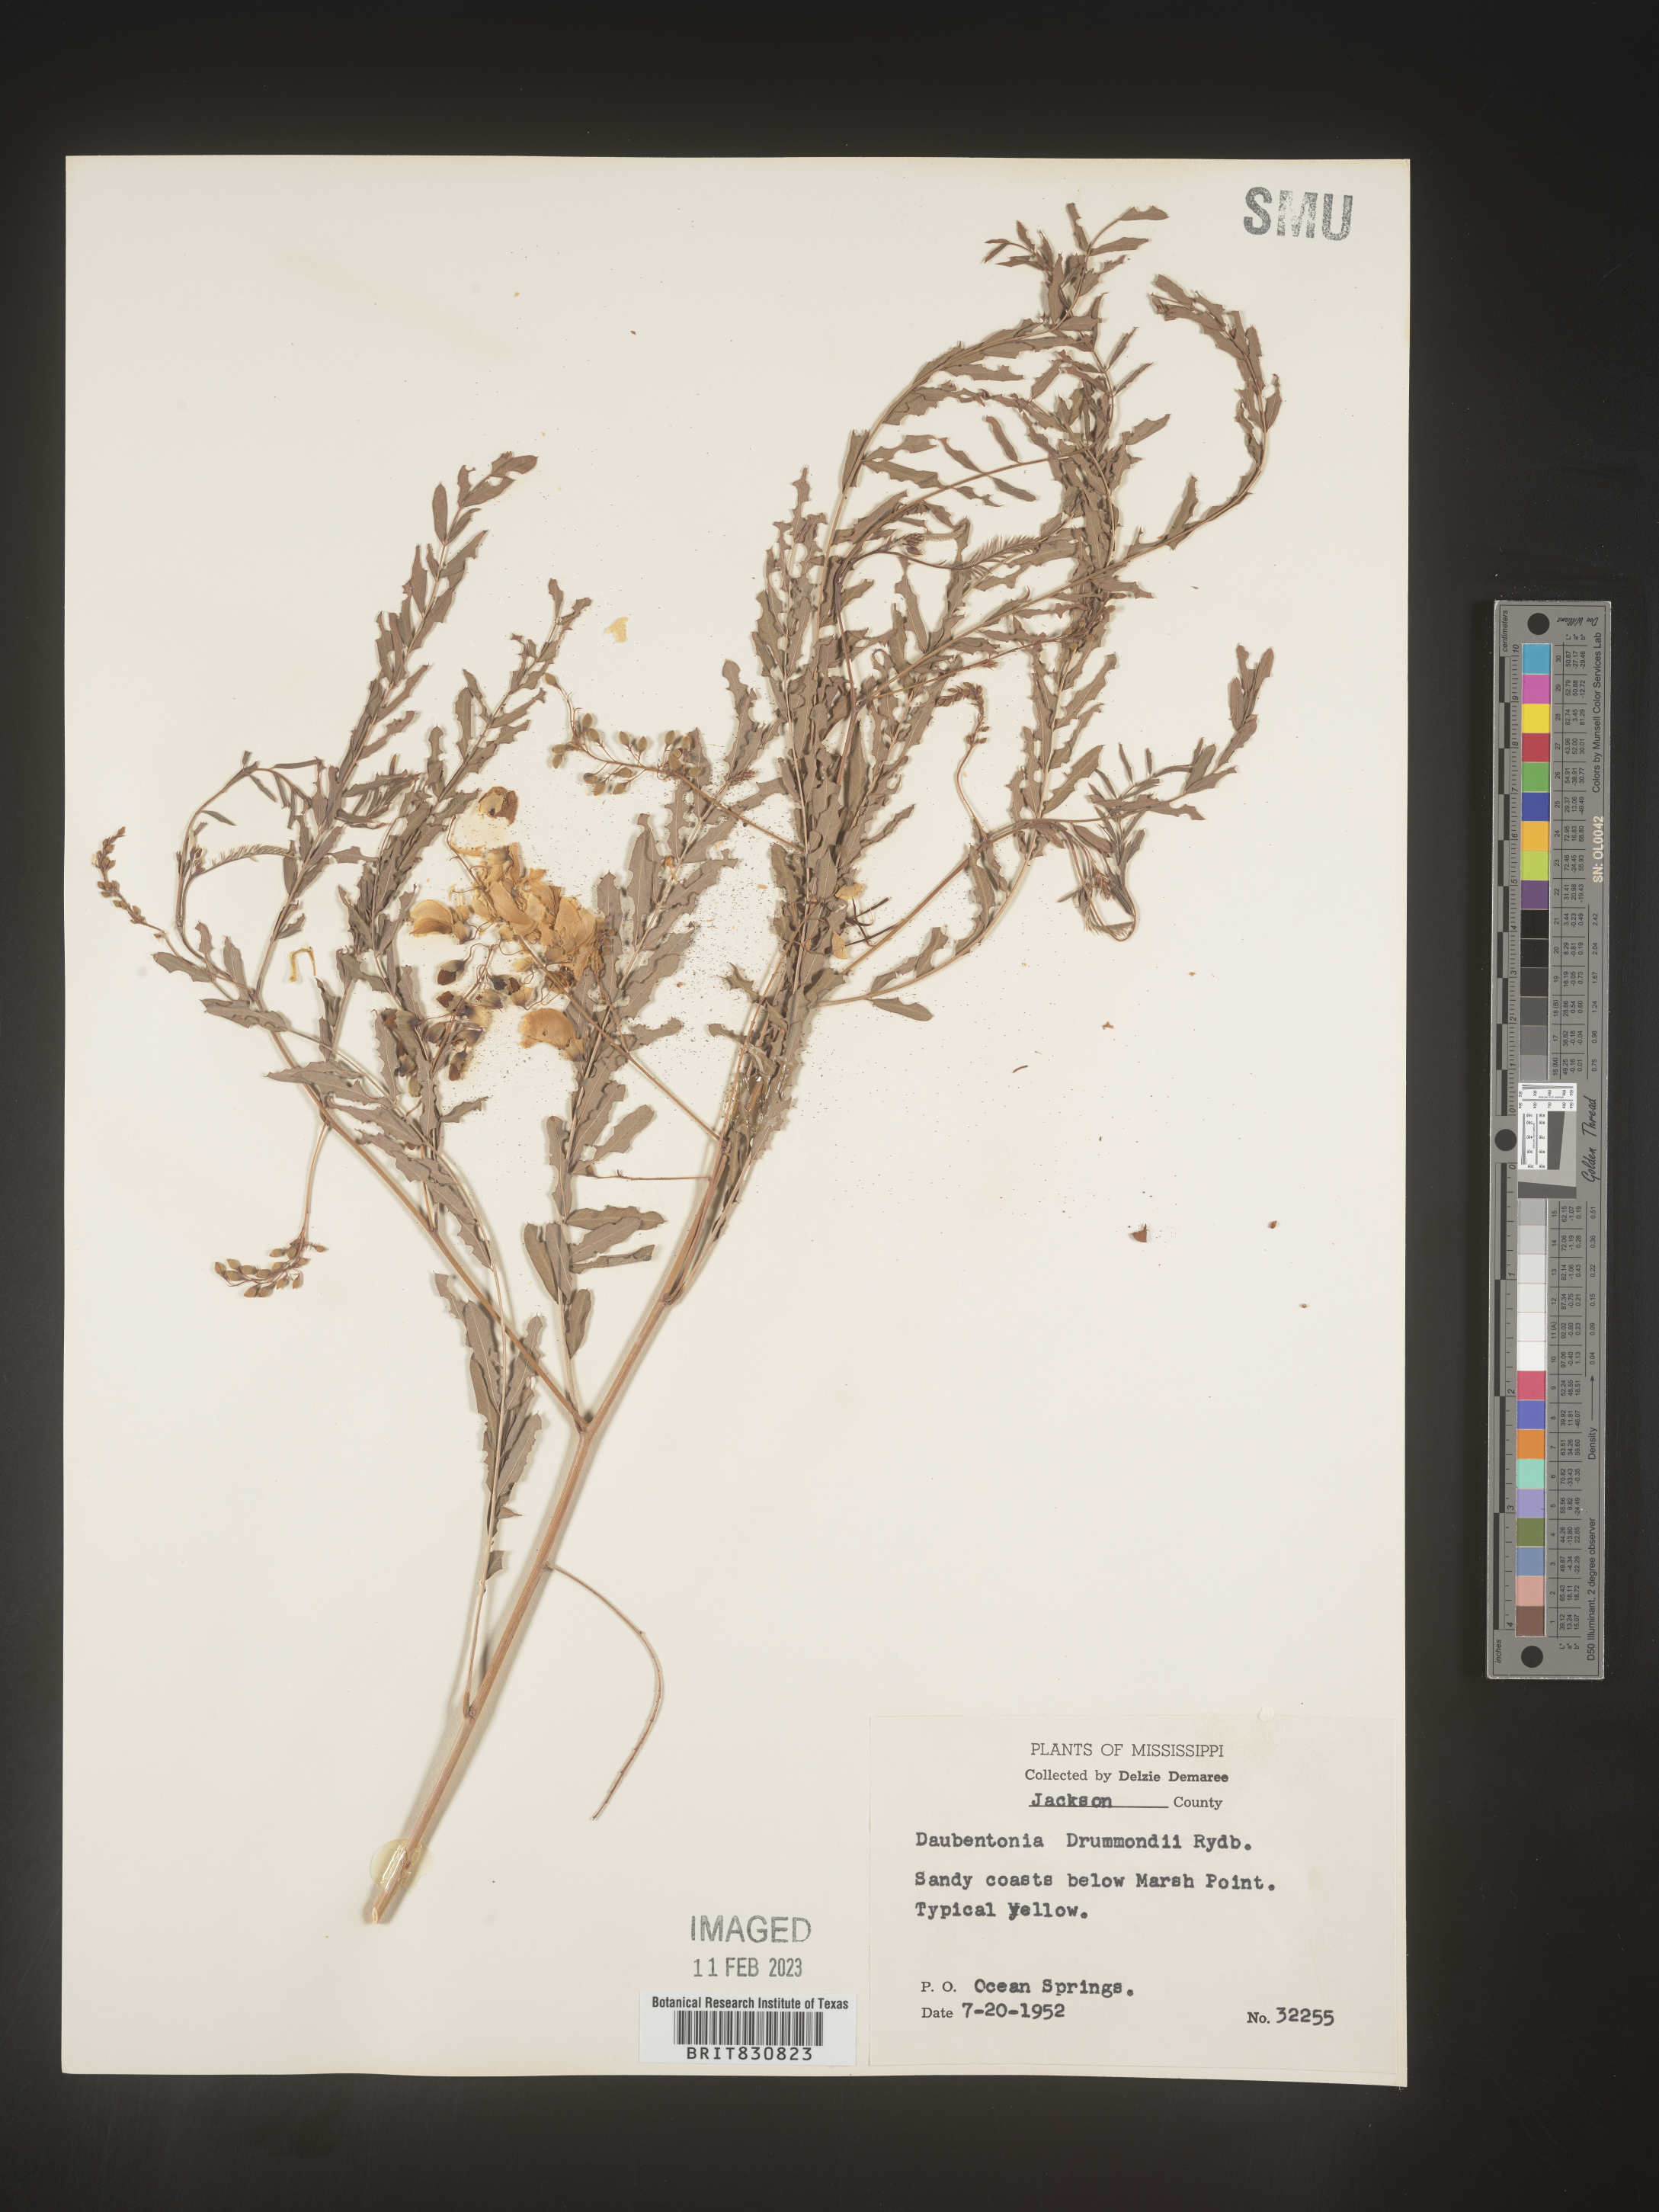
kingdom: Plantae
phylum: Tracheophyta
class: Magnoliopsida
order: Fabales
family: Fabaceae
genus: Sesbania
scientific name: Sesbania drummondii
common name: Poison-bean
